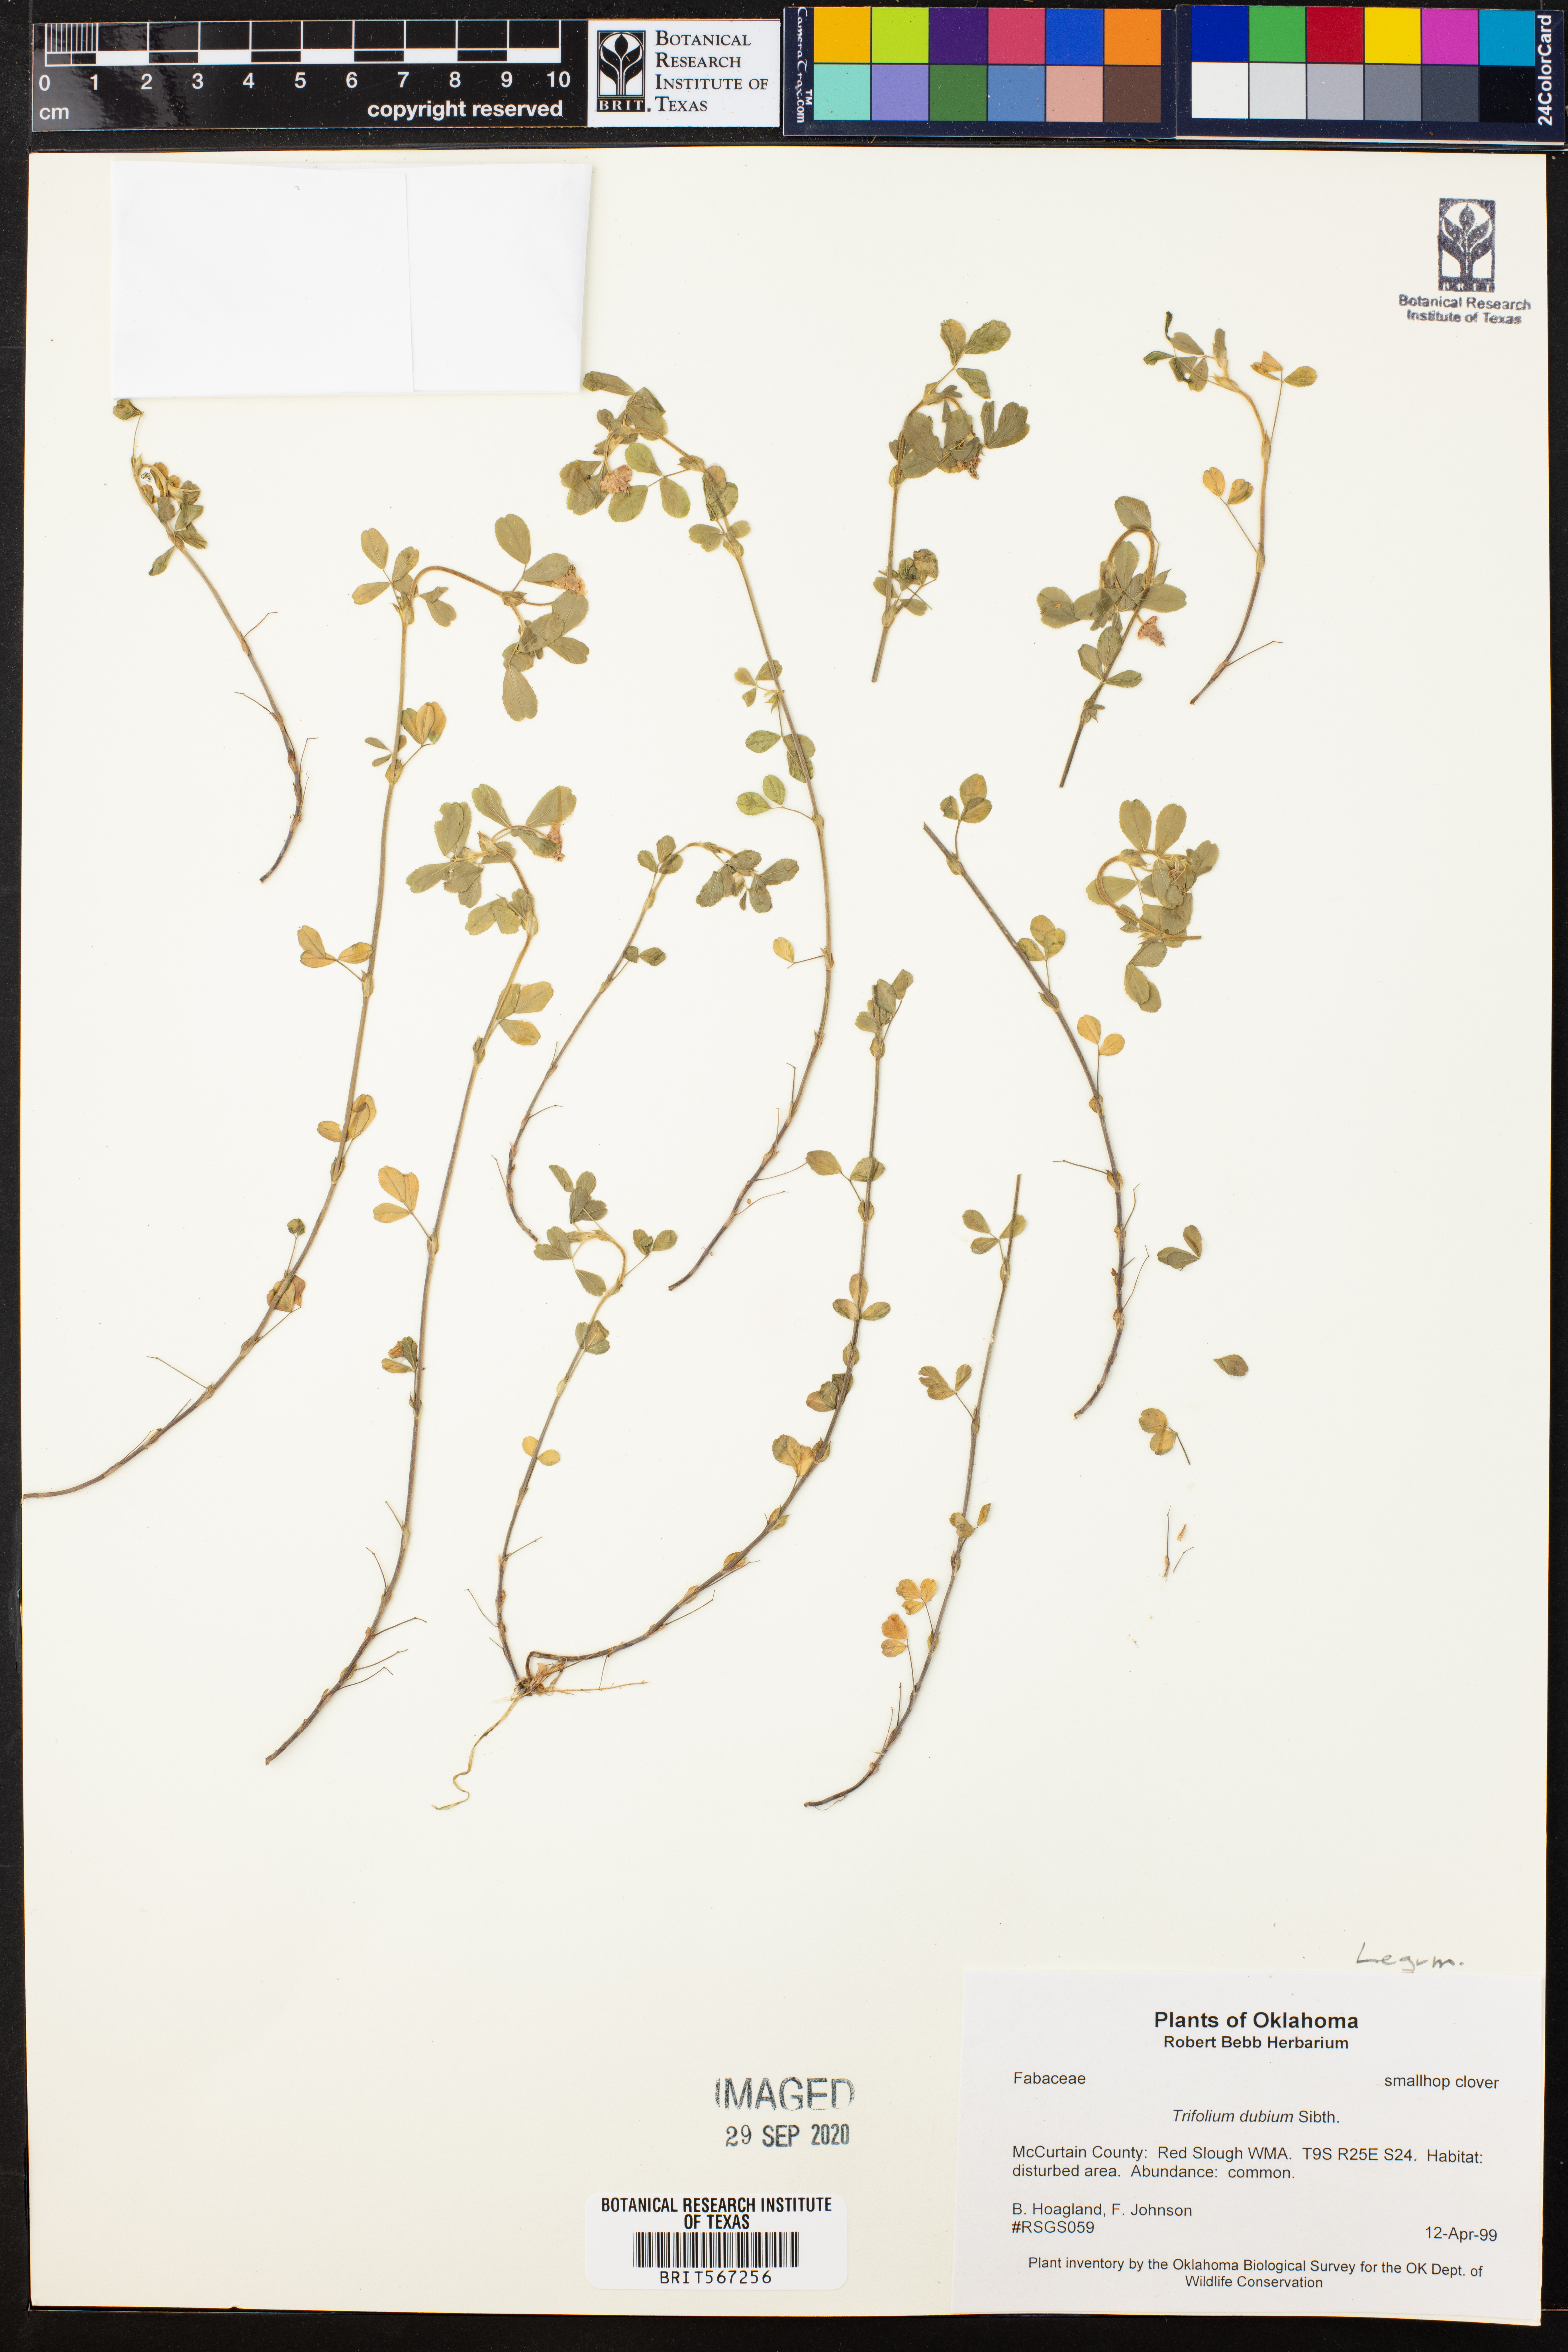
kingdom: Plantae
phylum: Tracheophyta
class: Magnoliopsida
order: Fabales
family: Fabaceae
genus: Trifolium
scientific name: Trifolium dubium
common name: Suckling clover
